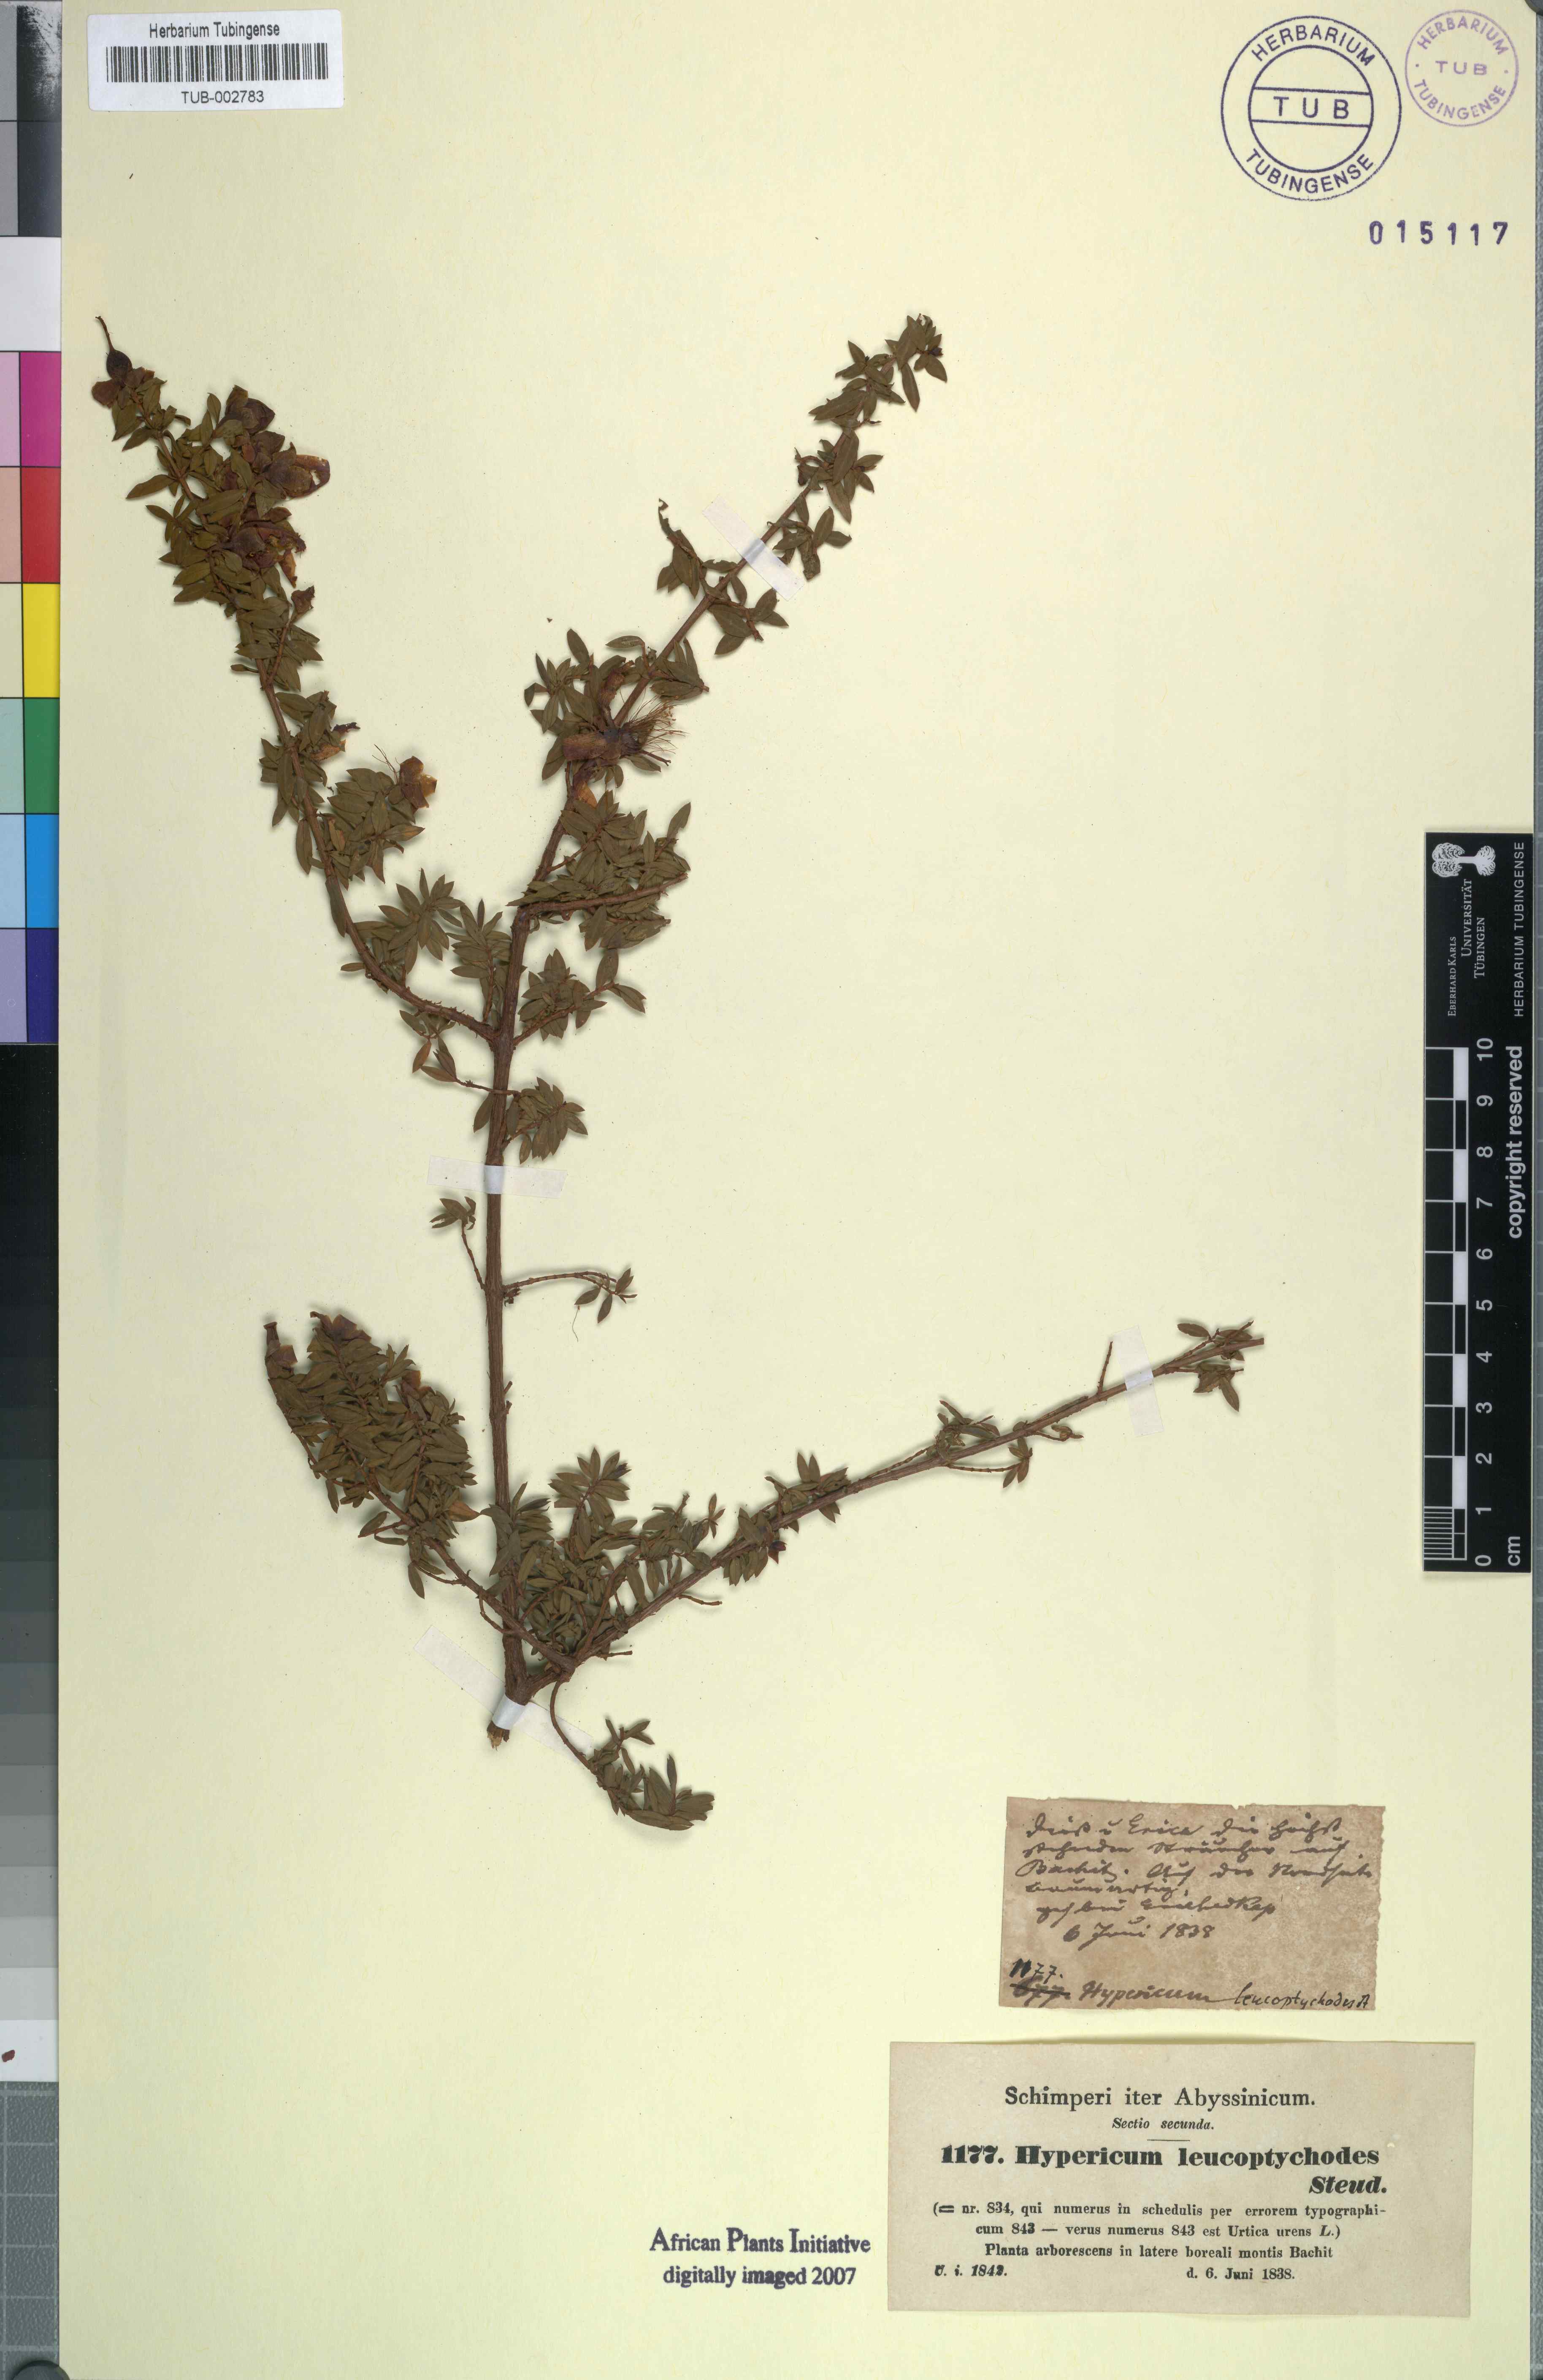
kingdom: Plantae
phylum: Tracheophyta
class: Magnoliopsida
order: Malpighiales
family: Hypericaceae
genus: Hypericum
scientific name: Hypericum lanceolatum
